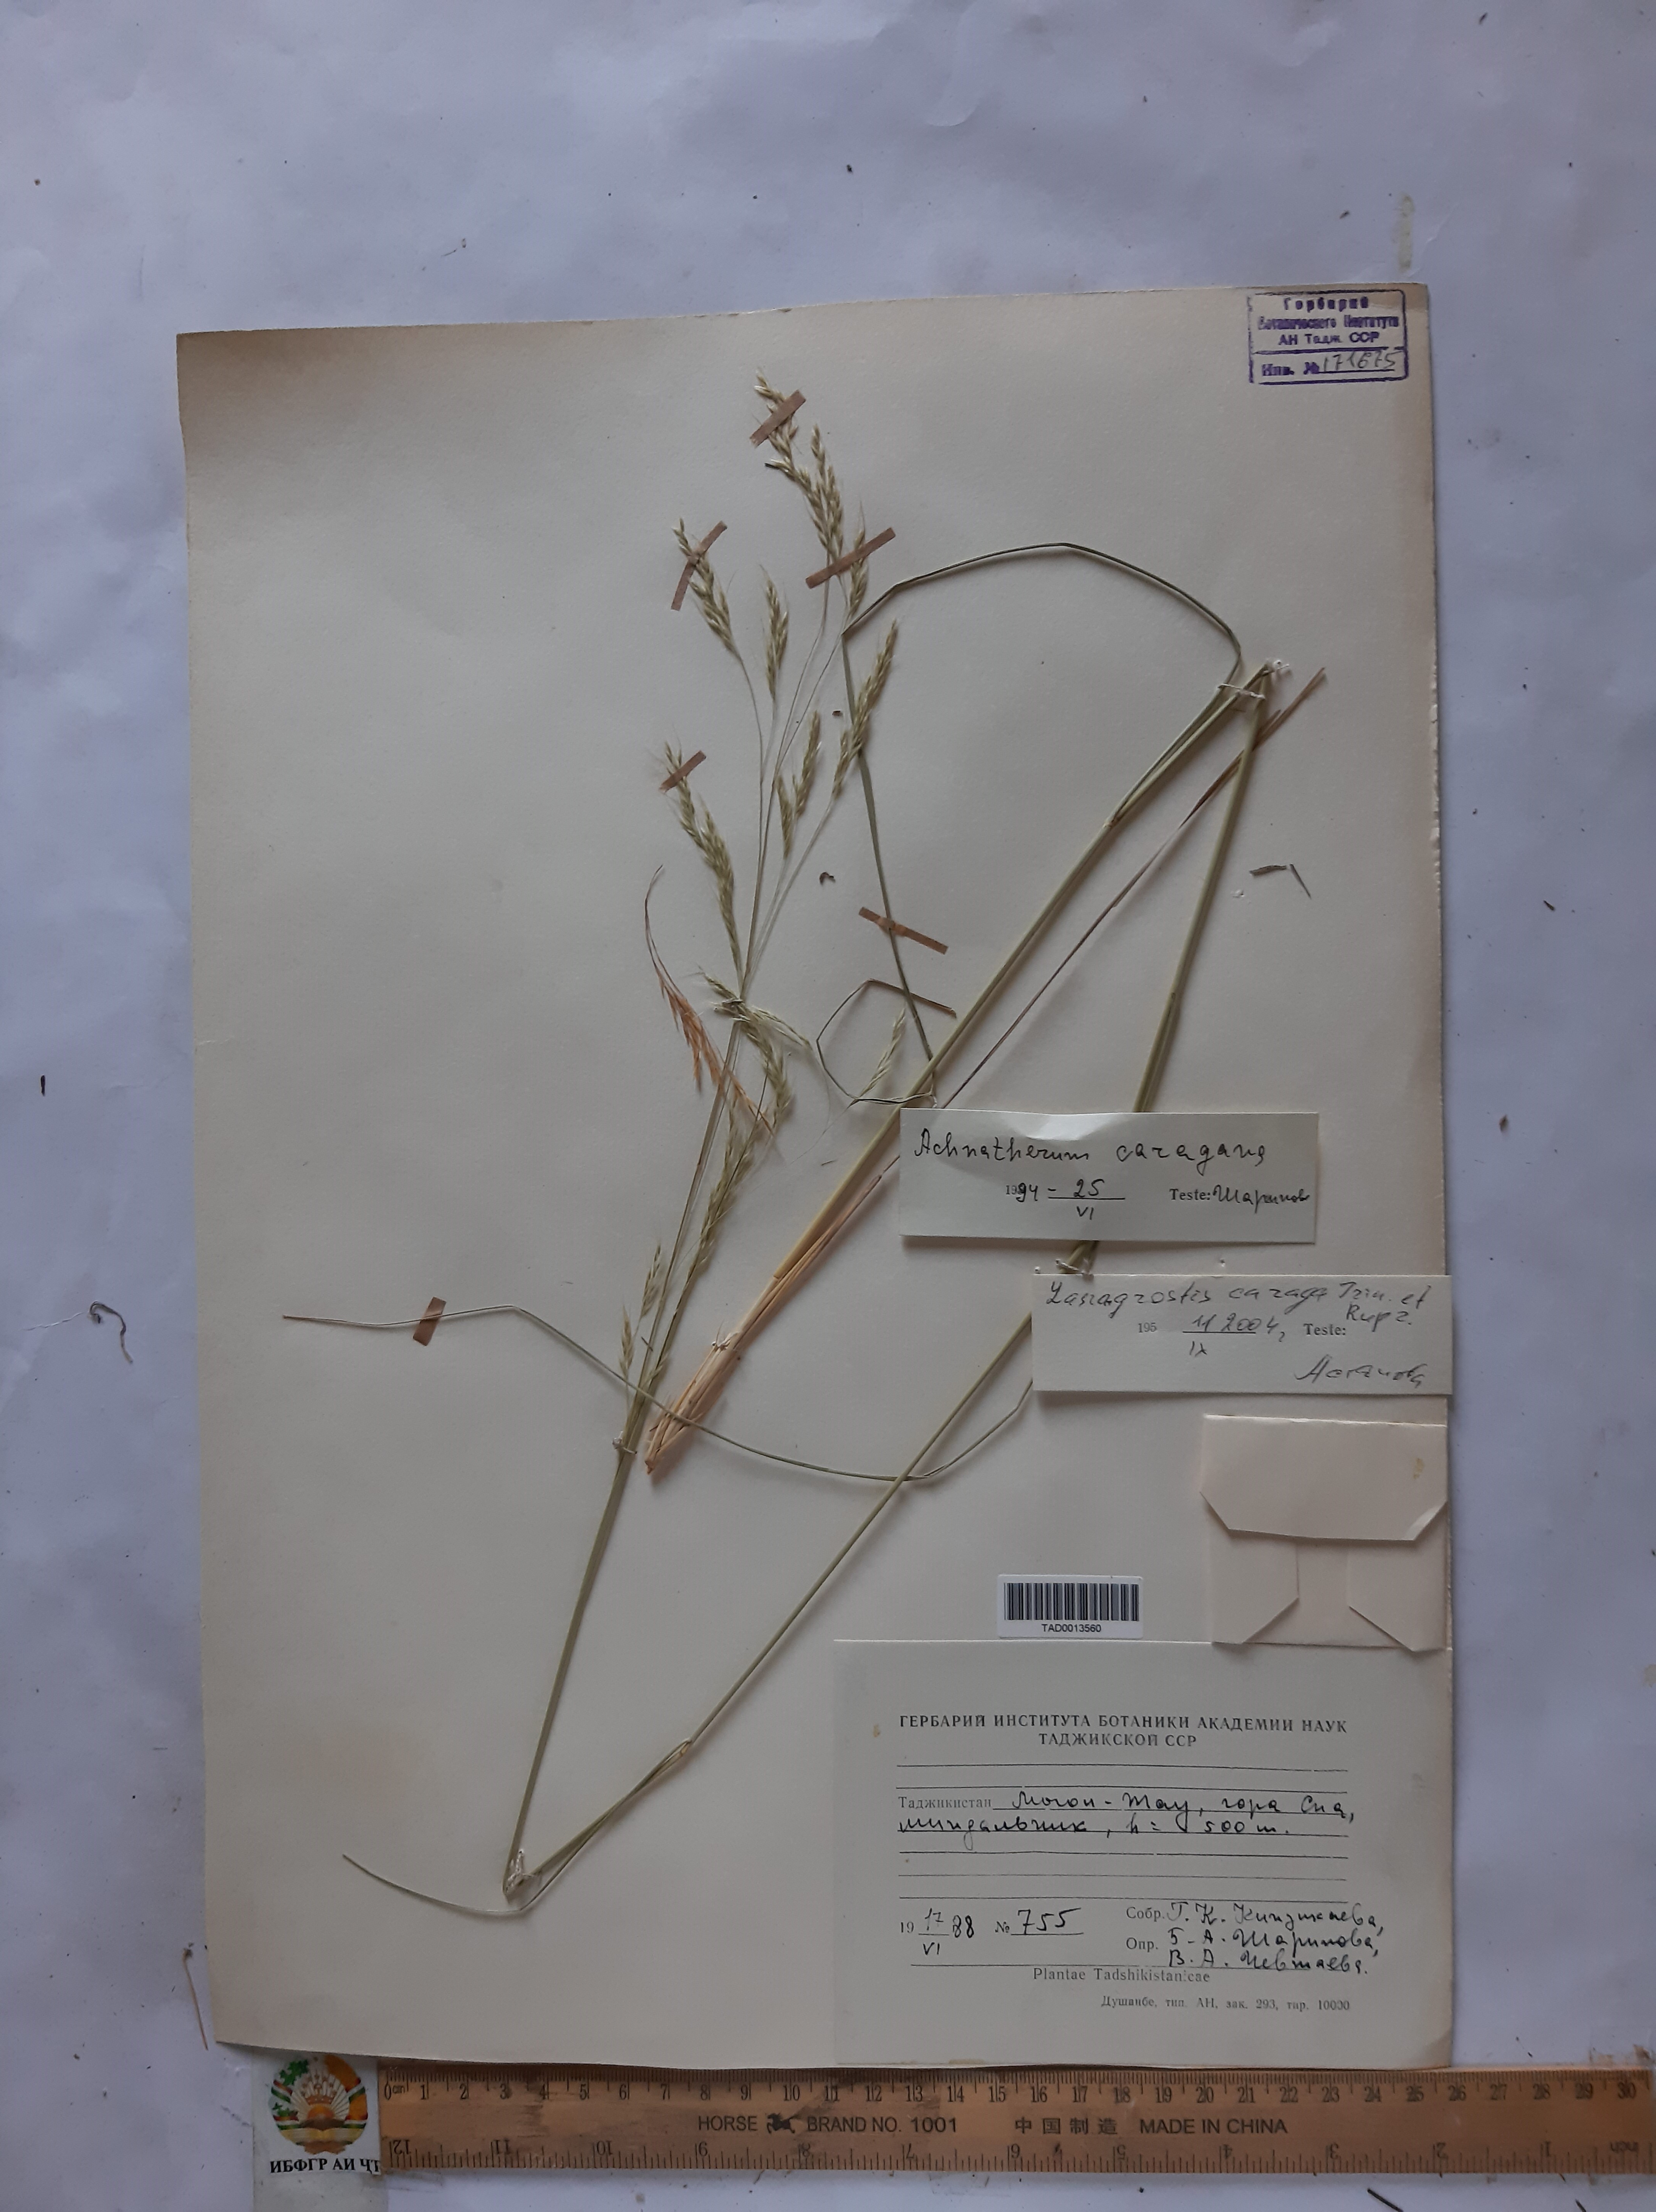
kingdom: Plantae
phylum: Tracheophyta
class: Liliopsida
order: Poales
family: Poaceae
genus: Stipa
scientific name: Stipa conferta
